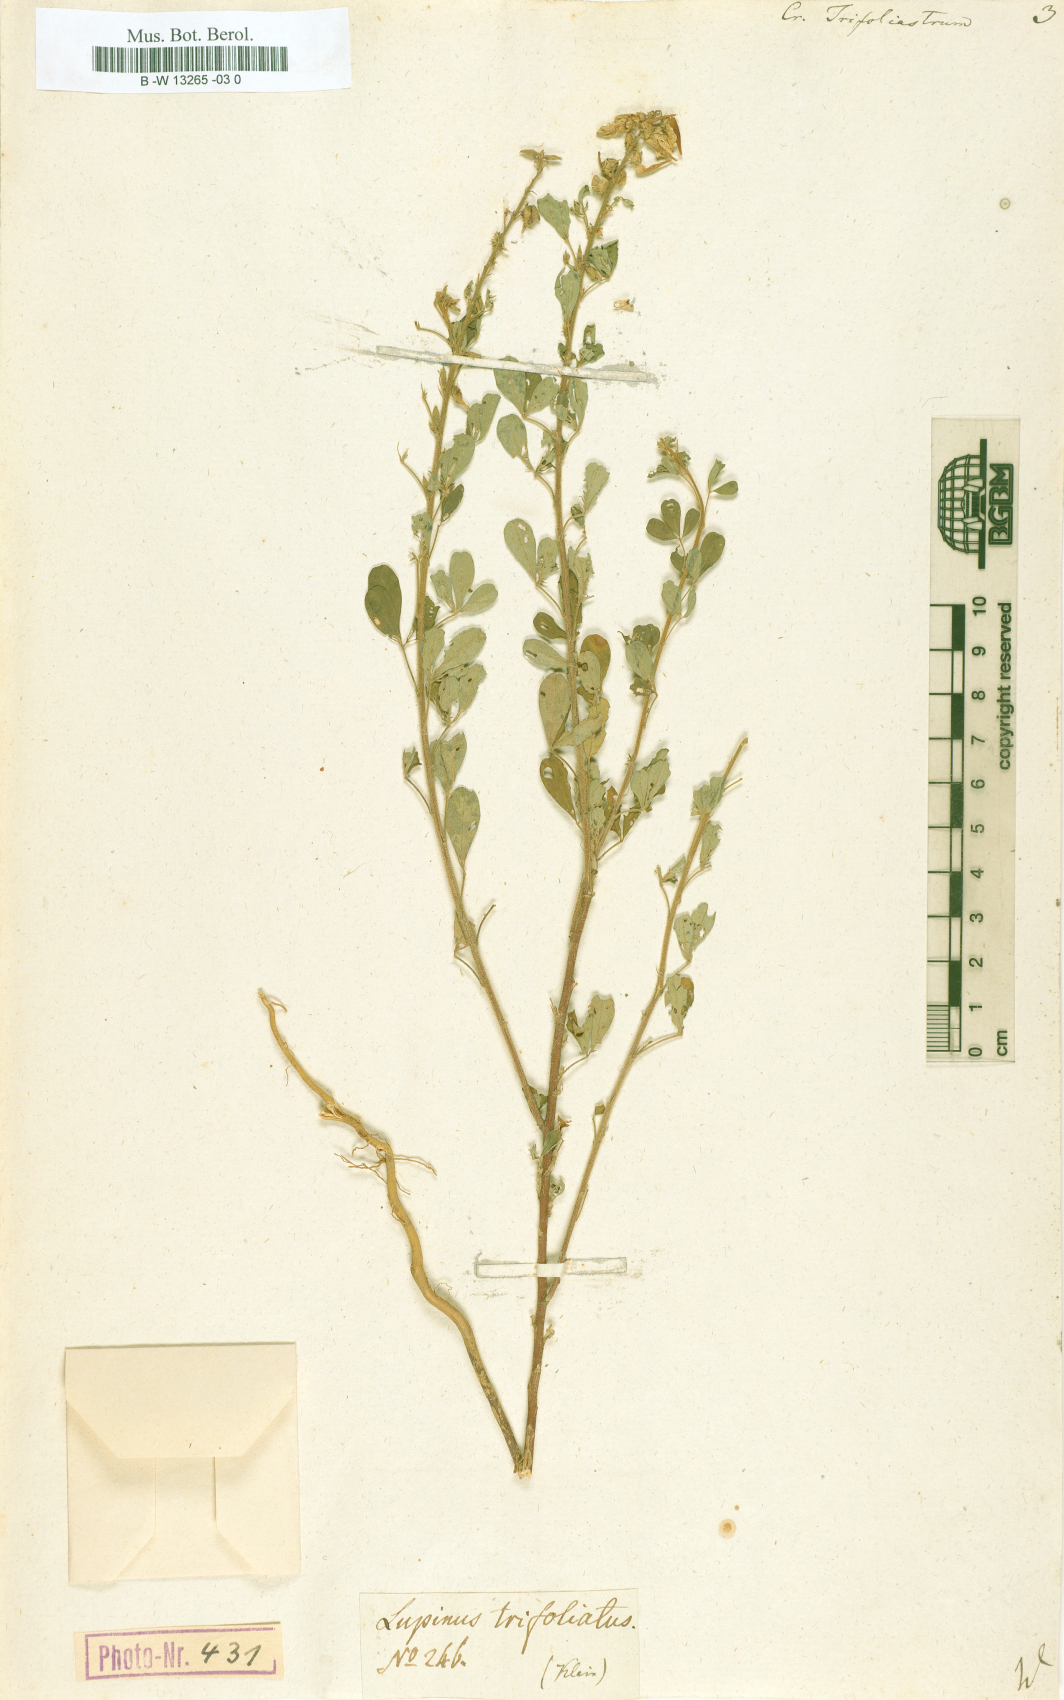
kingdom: Plantae
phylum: Tracheophyta
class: Magnoliopsida
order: Fabales
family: Fabaceae
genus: Crotalaria
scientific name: Crotalaria trifoliastrum
